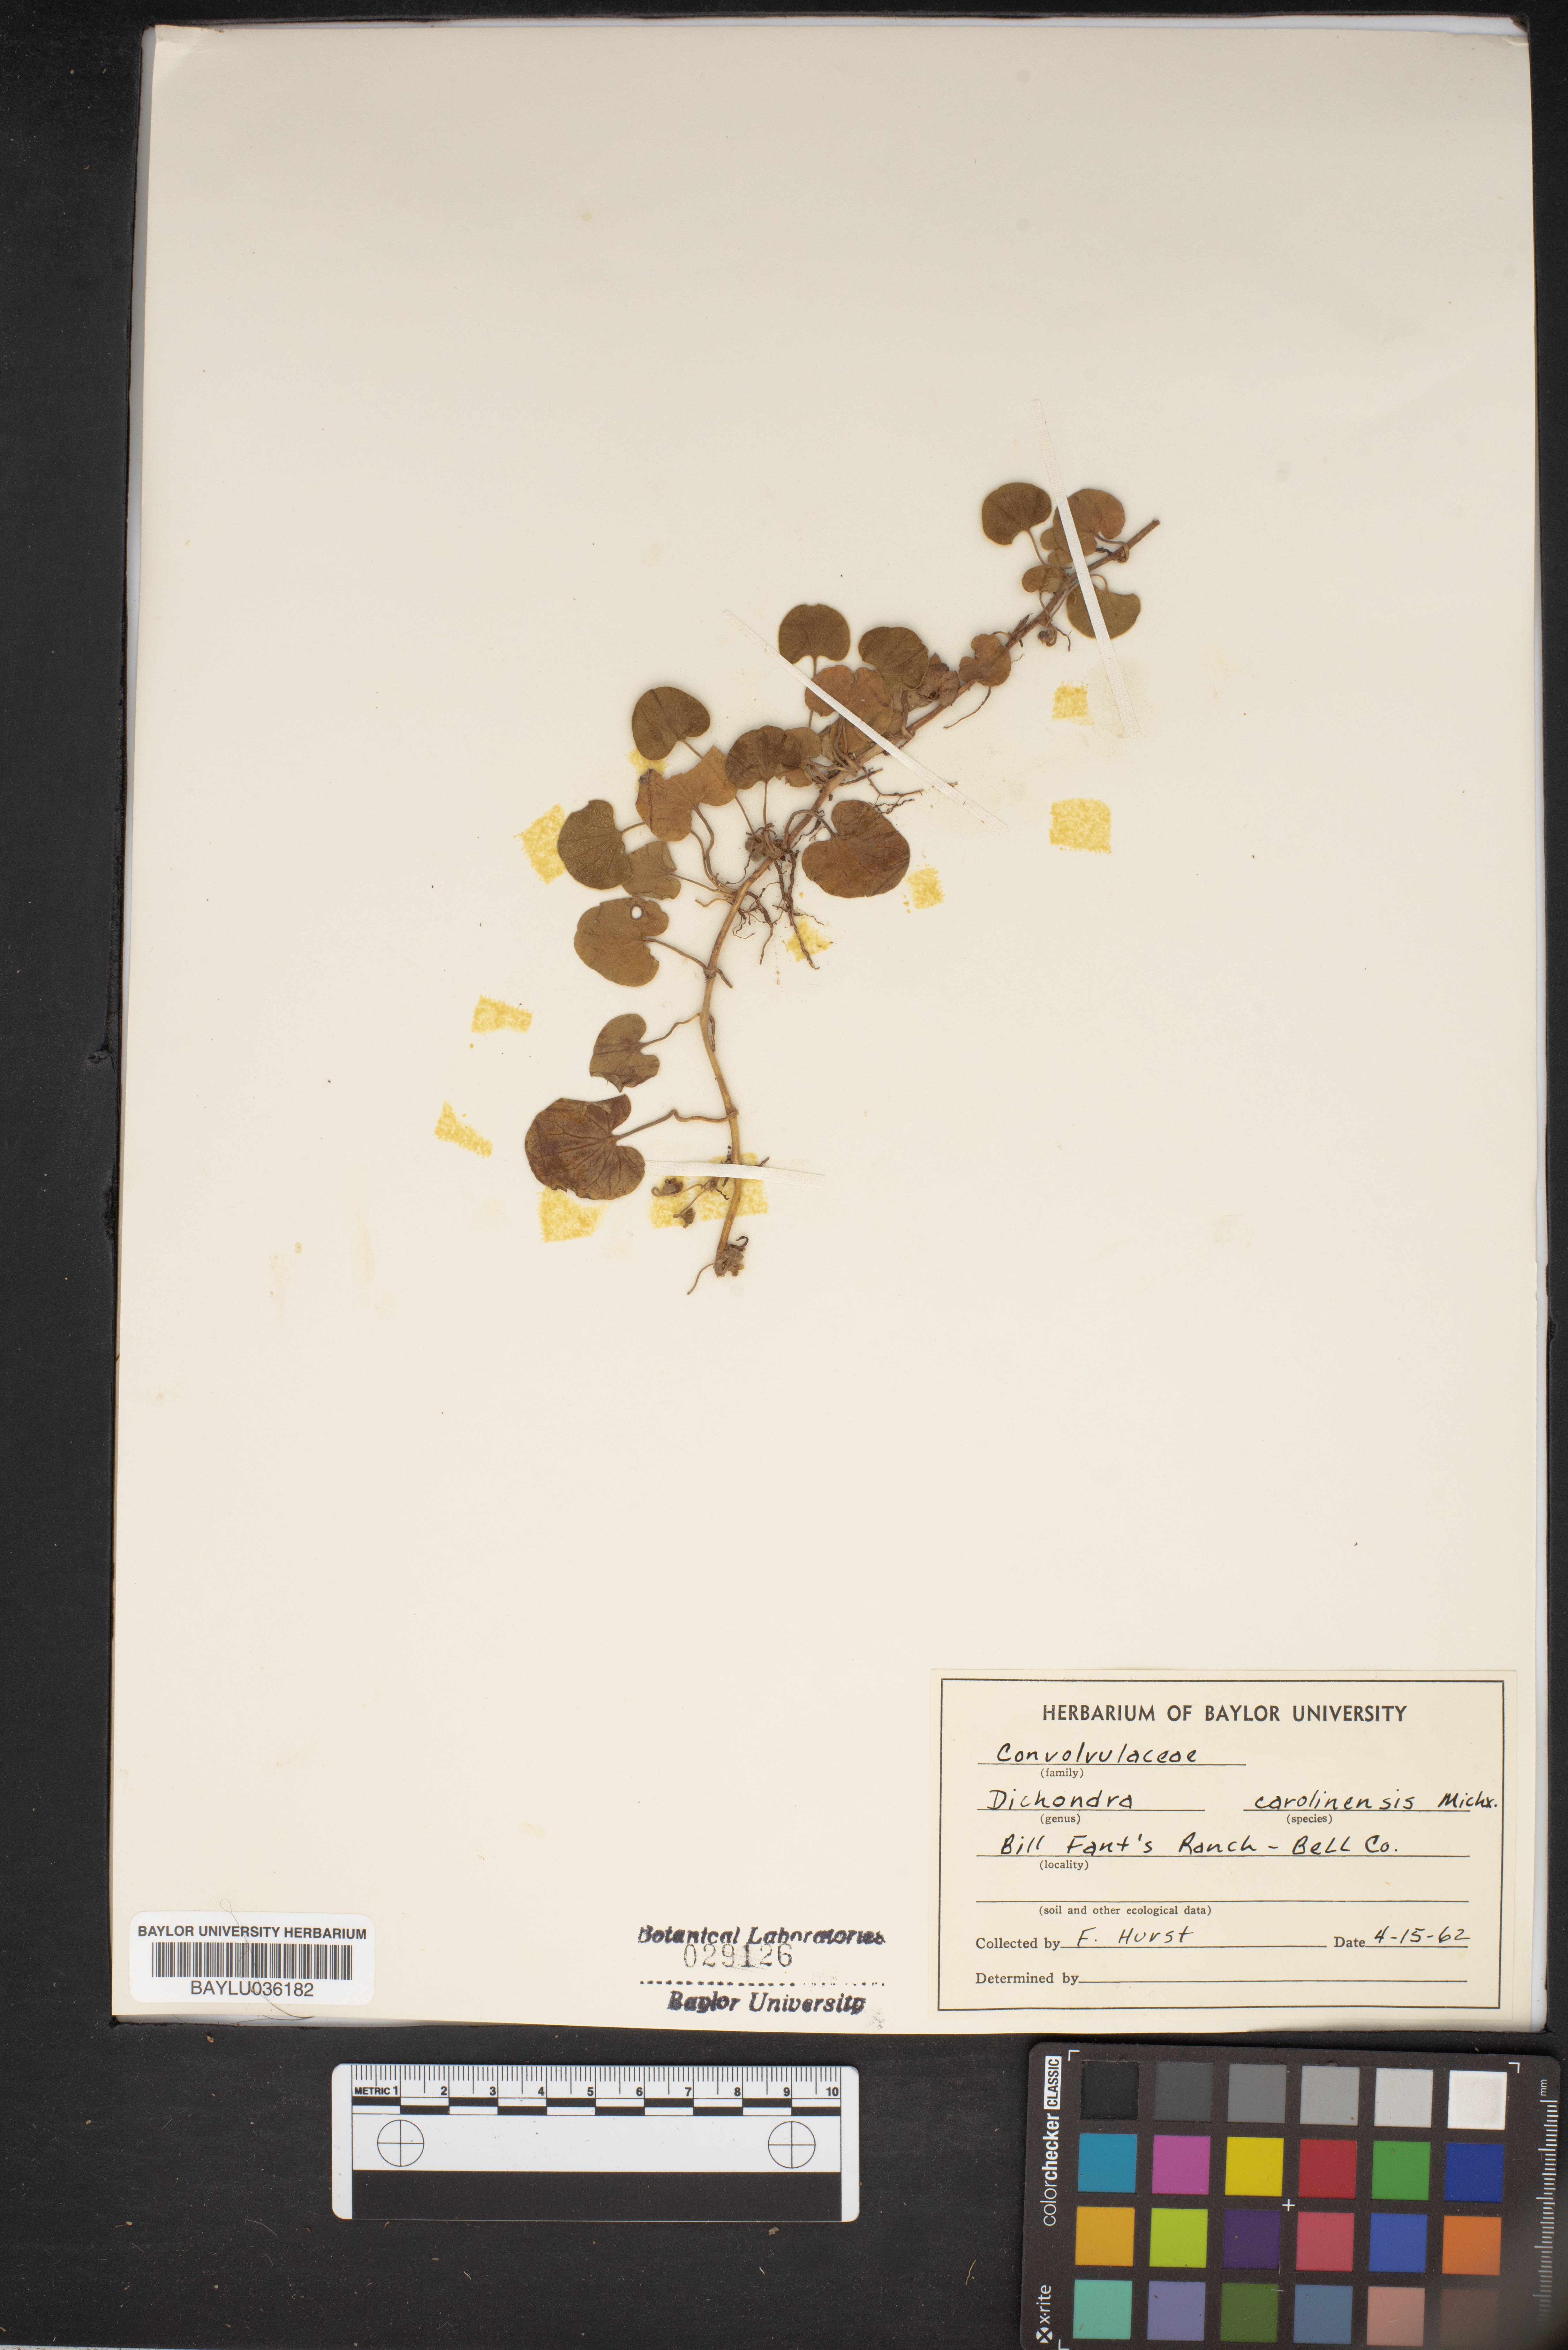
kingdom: Plantae
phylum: Tracheophyta
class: Magnoliopsida
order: Solanales
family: Convolvulaceae
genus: Dichondra
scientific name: Dichondra carolinensis
